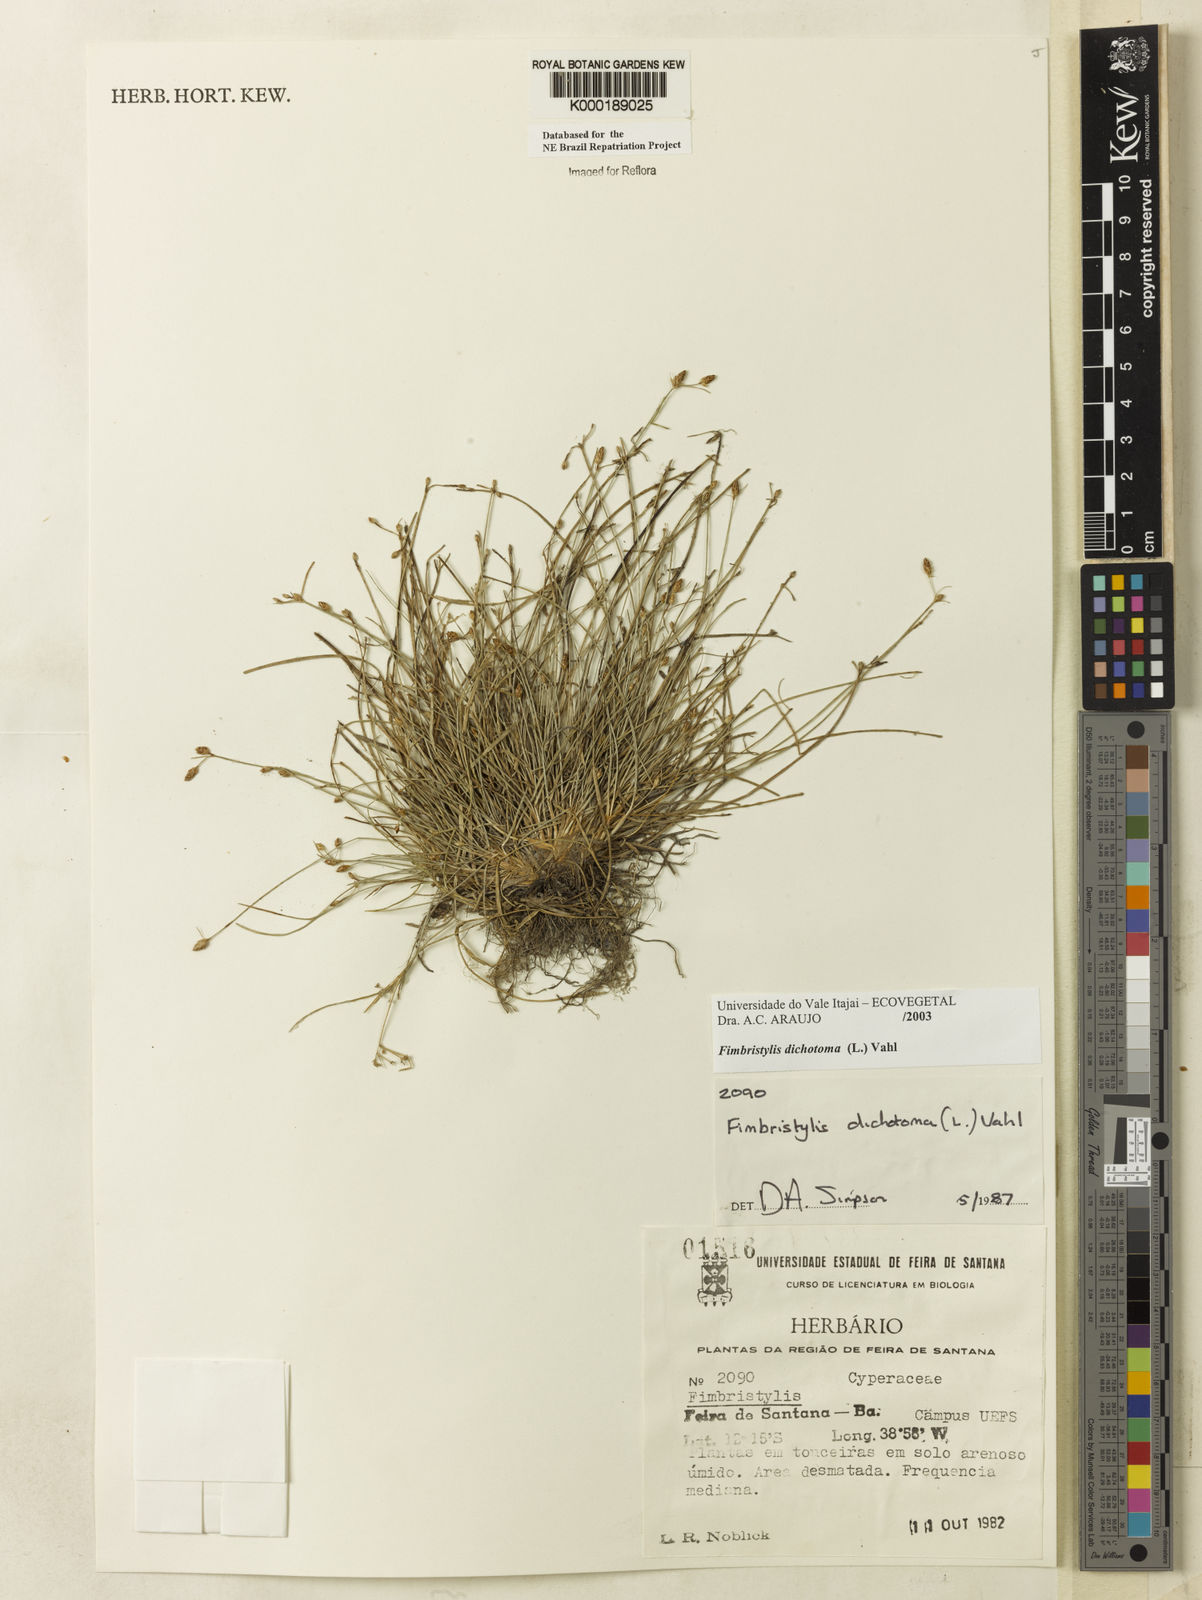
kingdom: Plantae
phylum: Tracheophyta
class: Liliopsida
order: Poales
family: Cyperaceae
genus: Fimbristylis
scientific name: Fimbristylis dichotoma
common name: Forked fimbry
